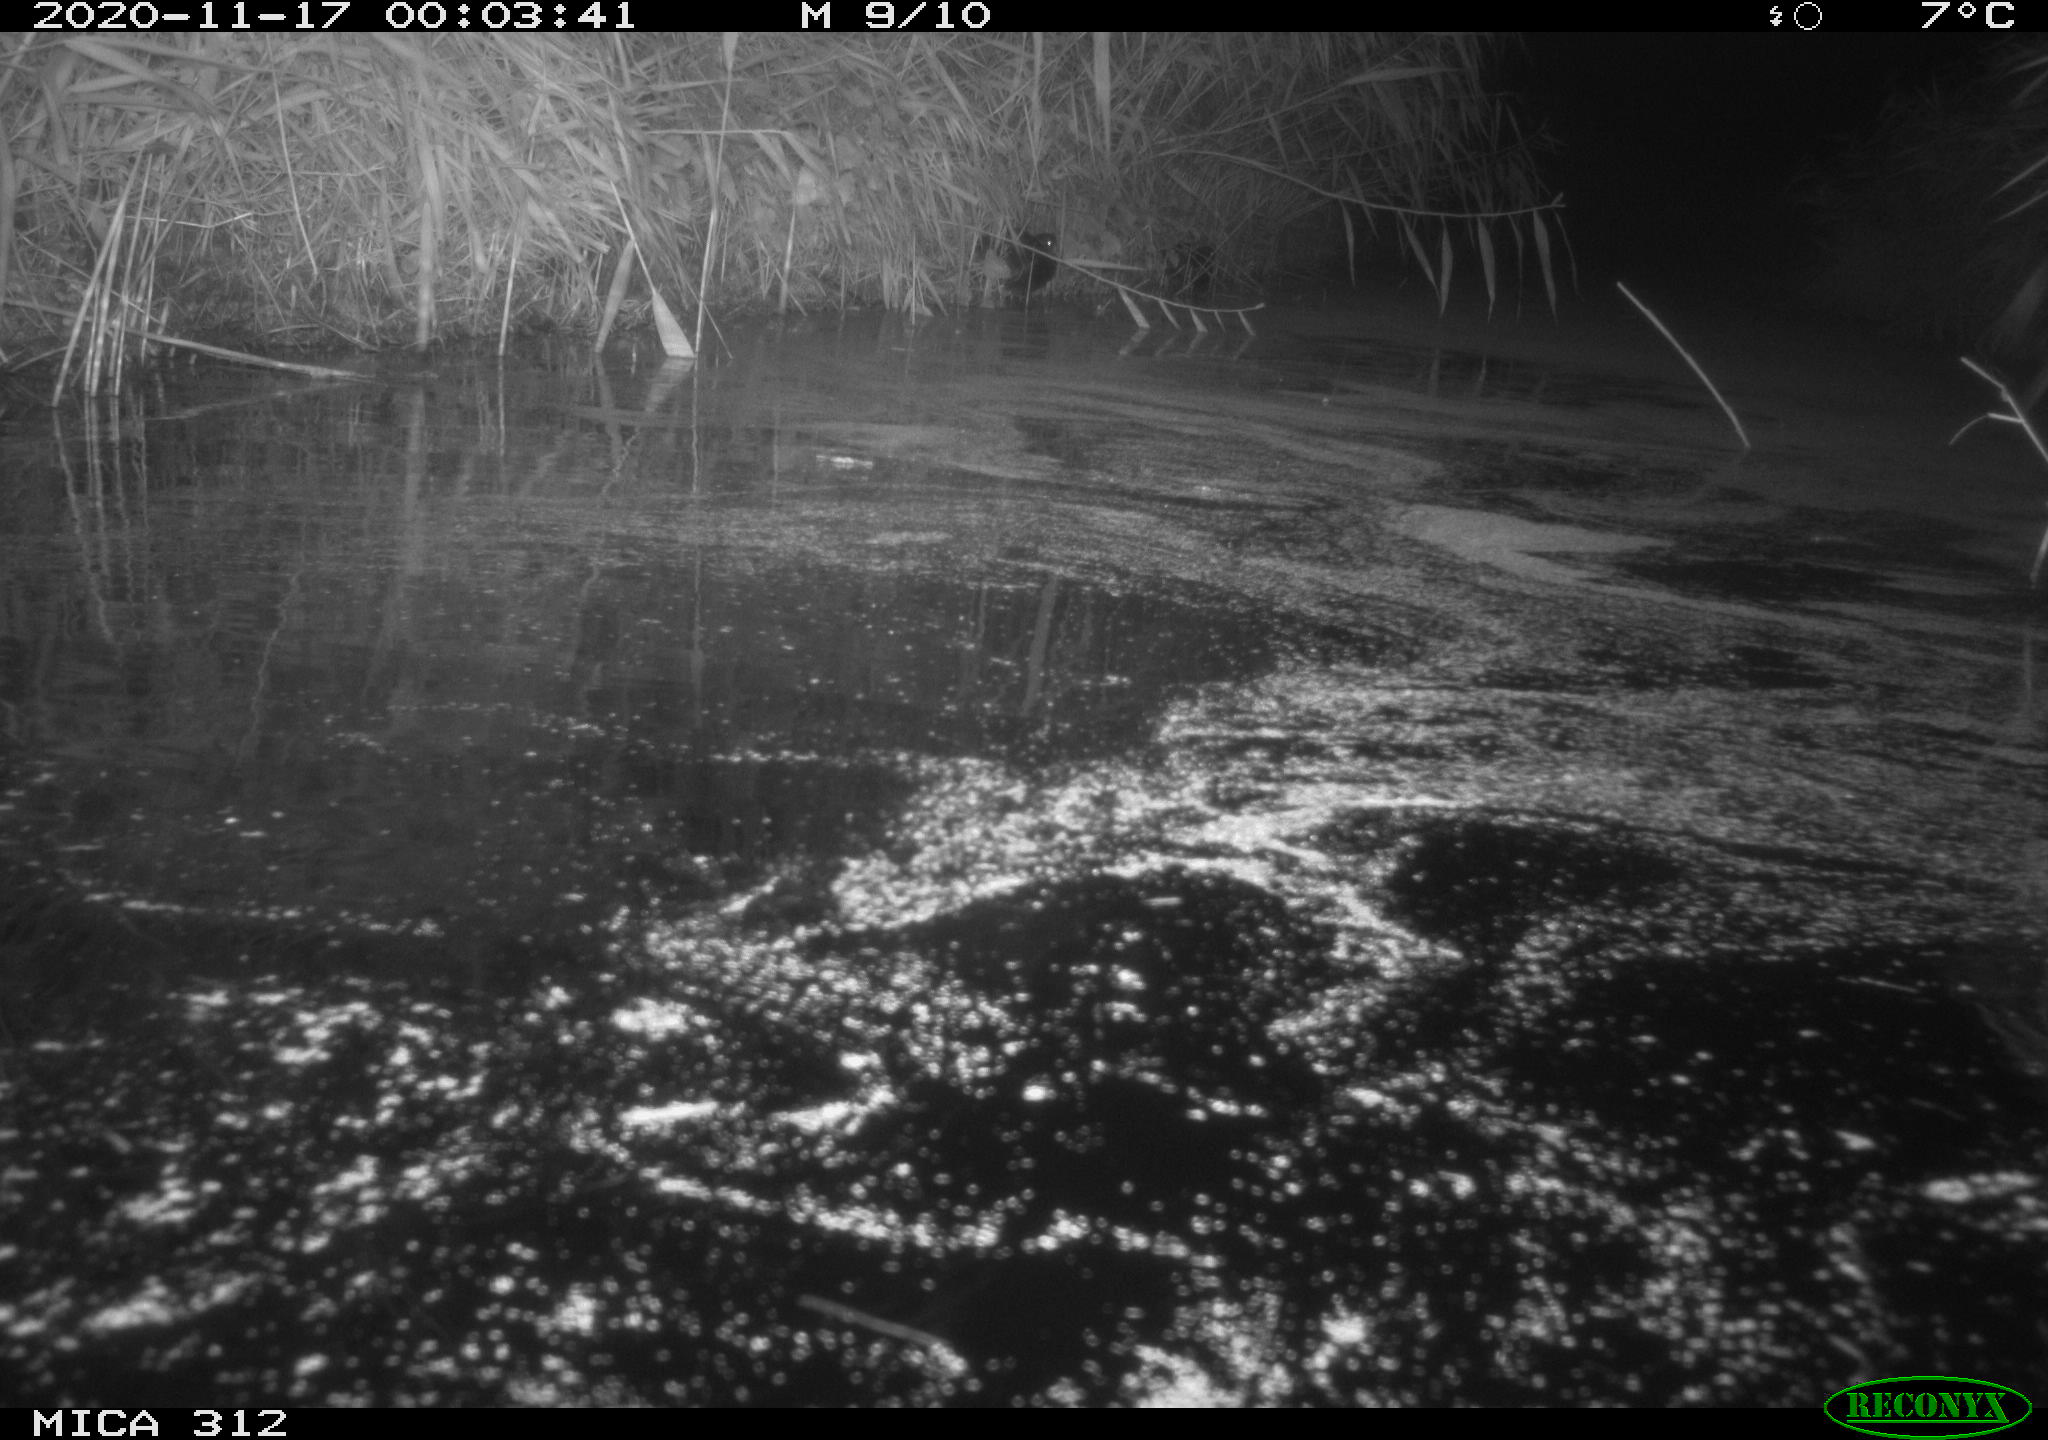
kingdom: Animalia
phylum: Chordata
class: Mammalia
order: Rodentia
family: Cricetidae
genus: Ondatra
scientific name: Ondatra zibethicus
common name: Muskrat
